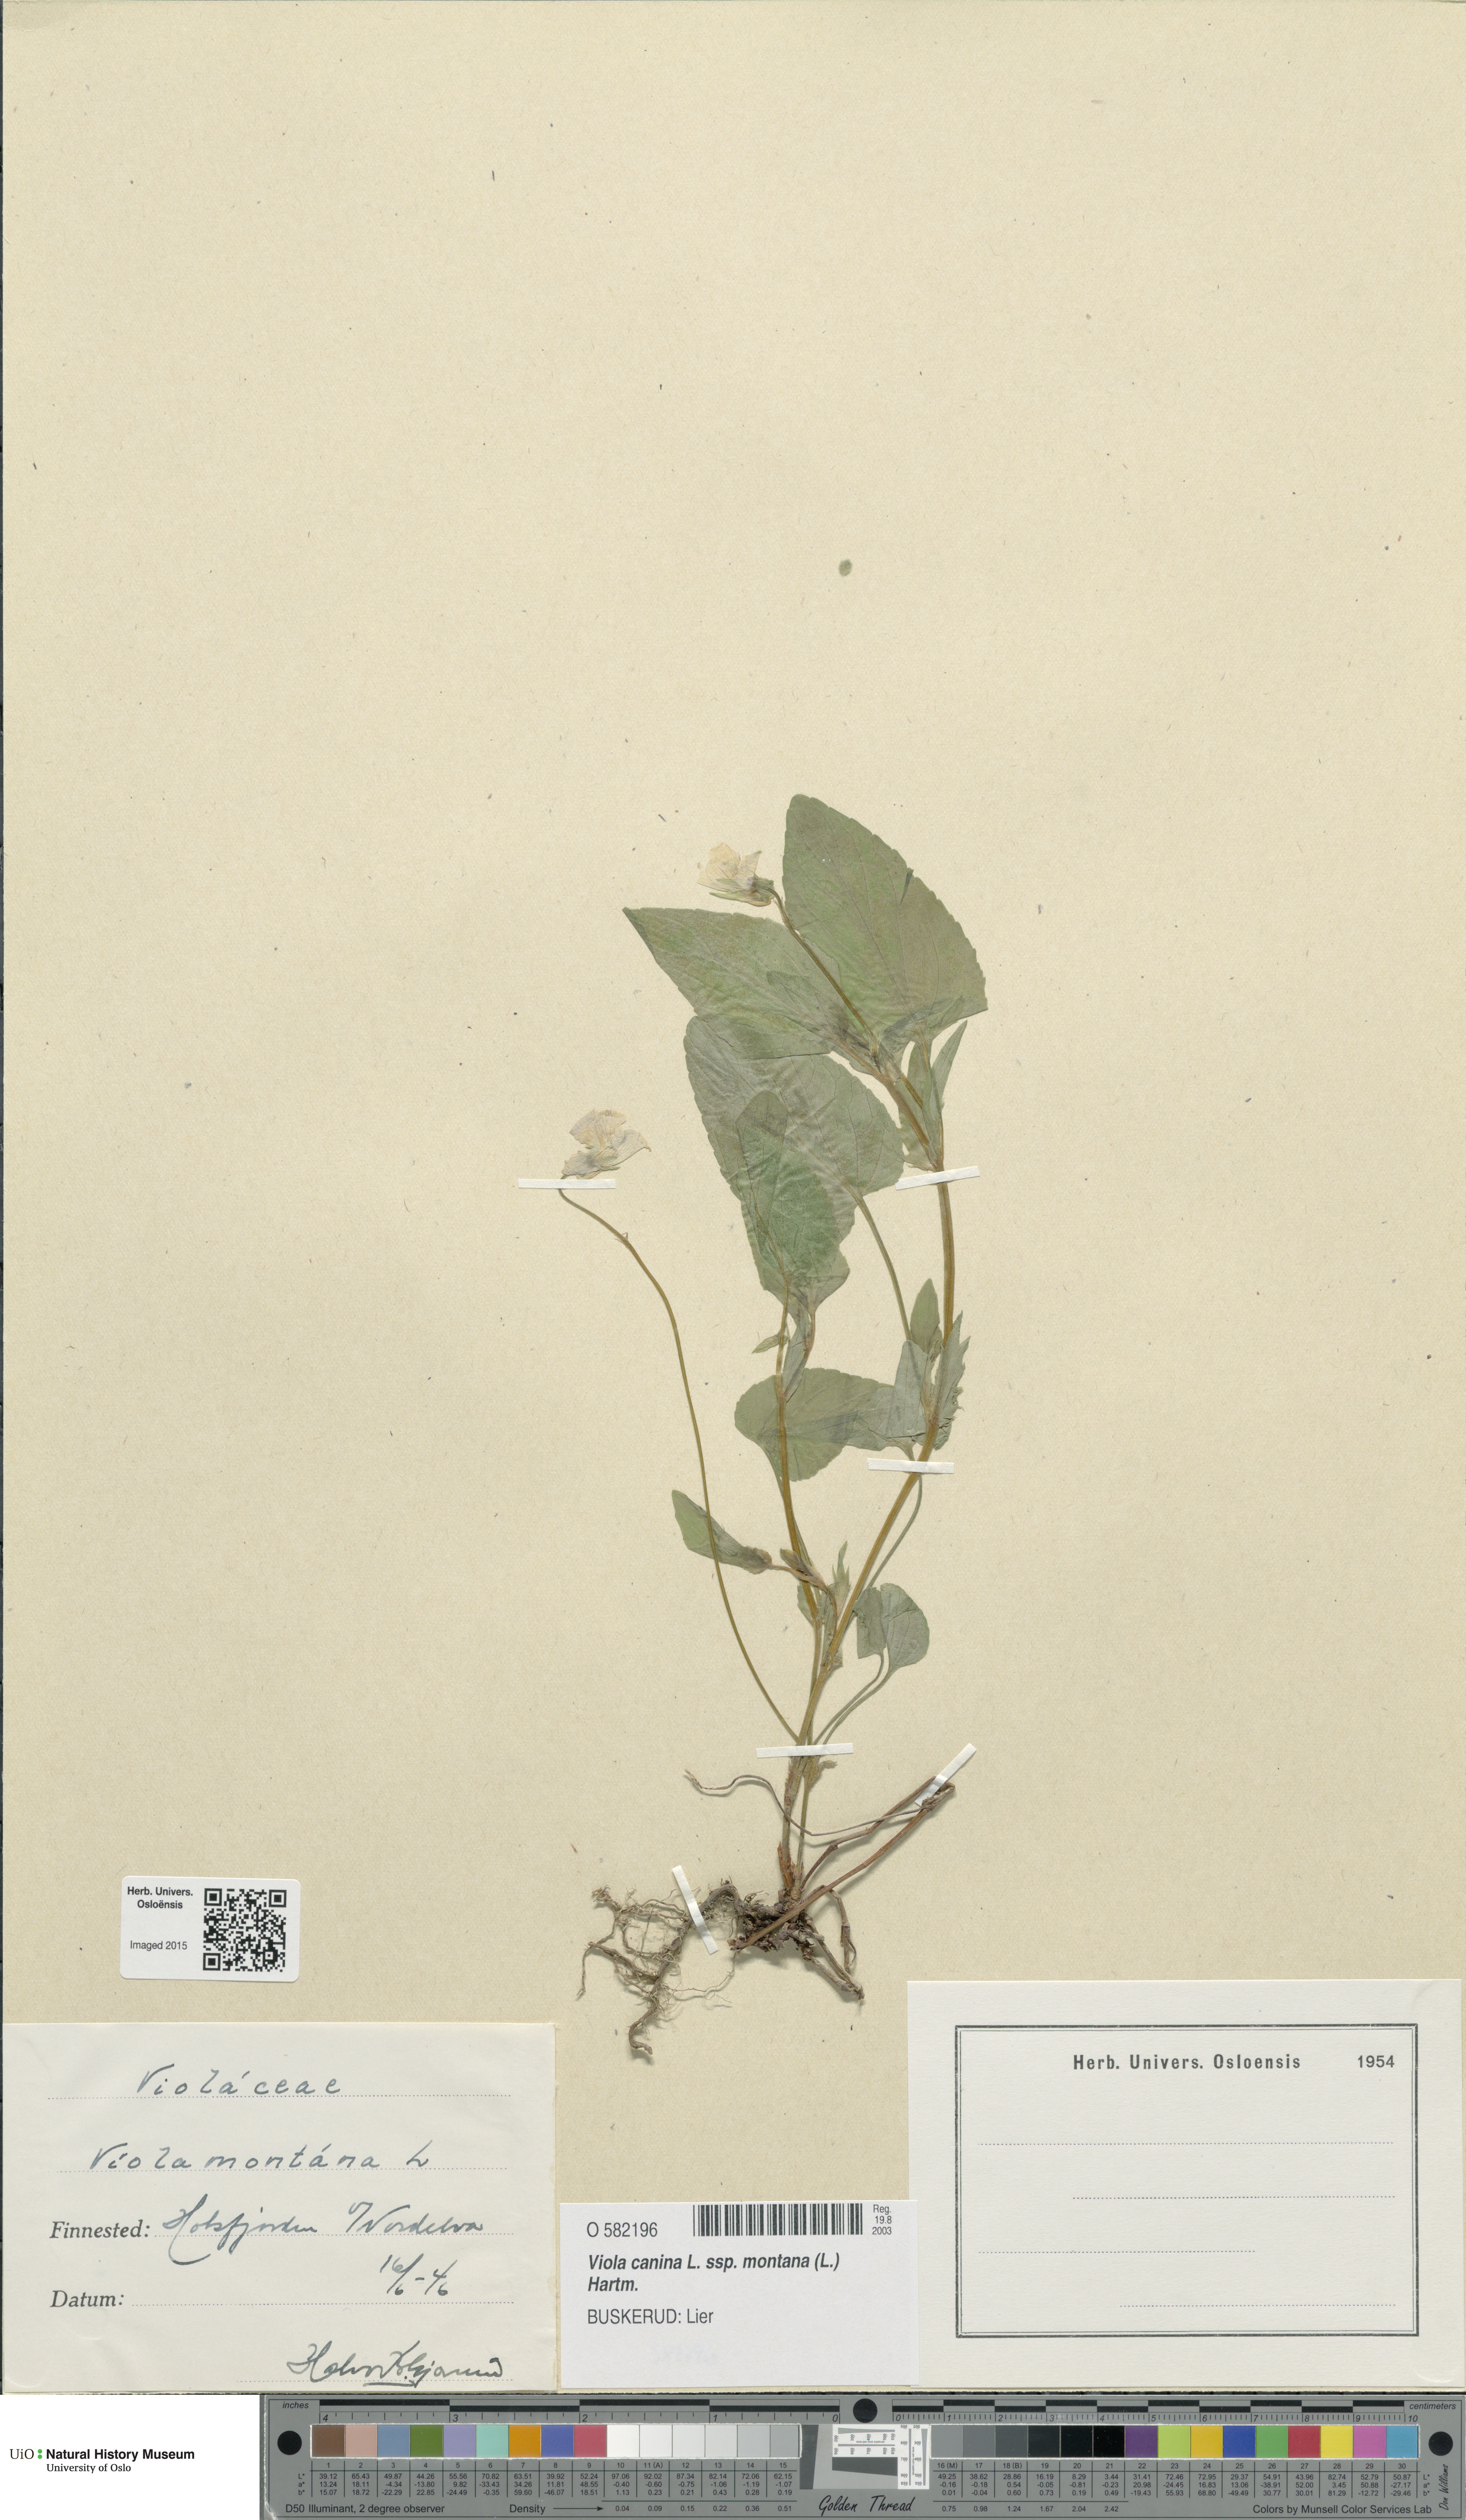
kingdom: Plantae
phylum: Tracheophyta
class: Magnoliopsida
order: Malpighiales
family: Violaceae
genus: Viola
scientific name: Viola ruppii
